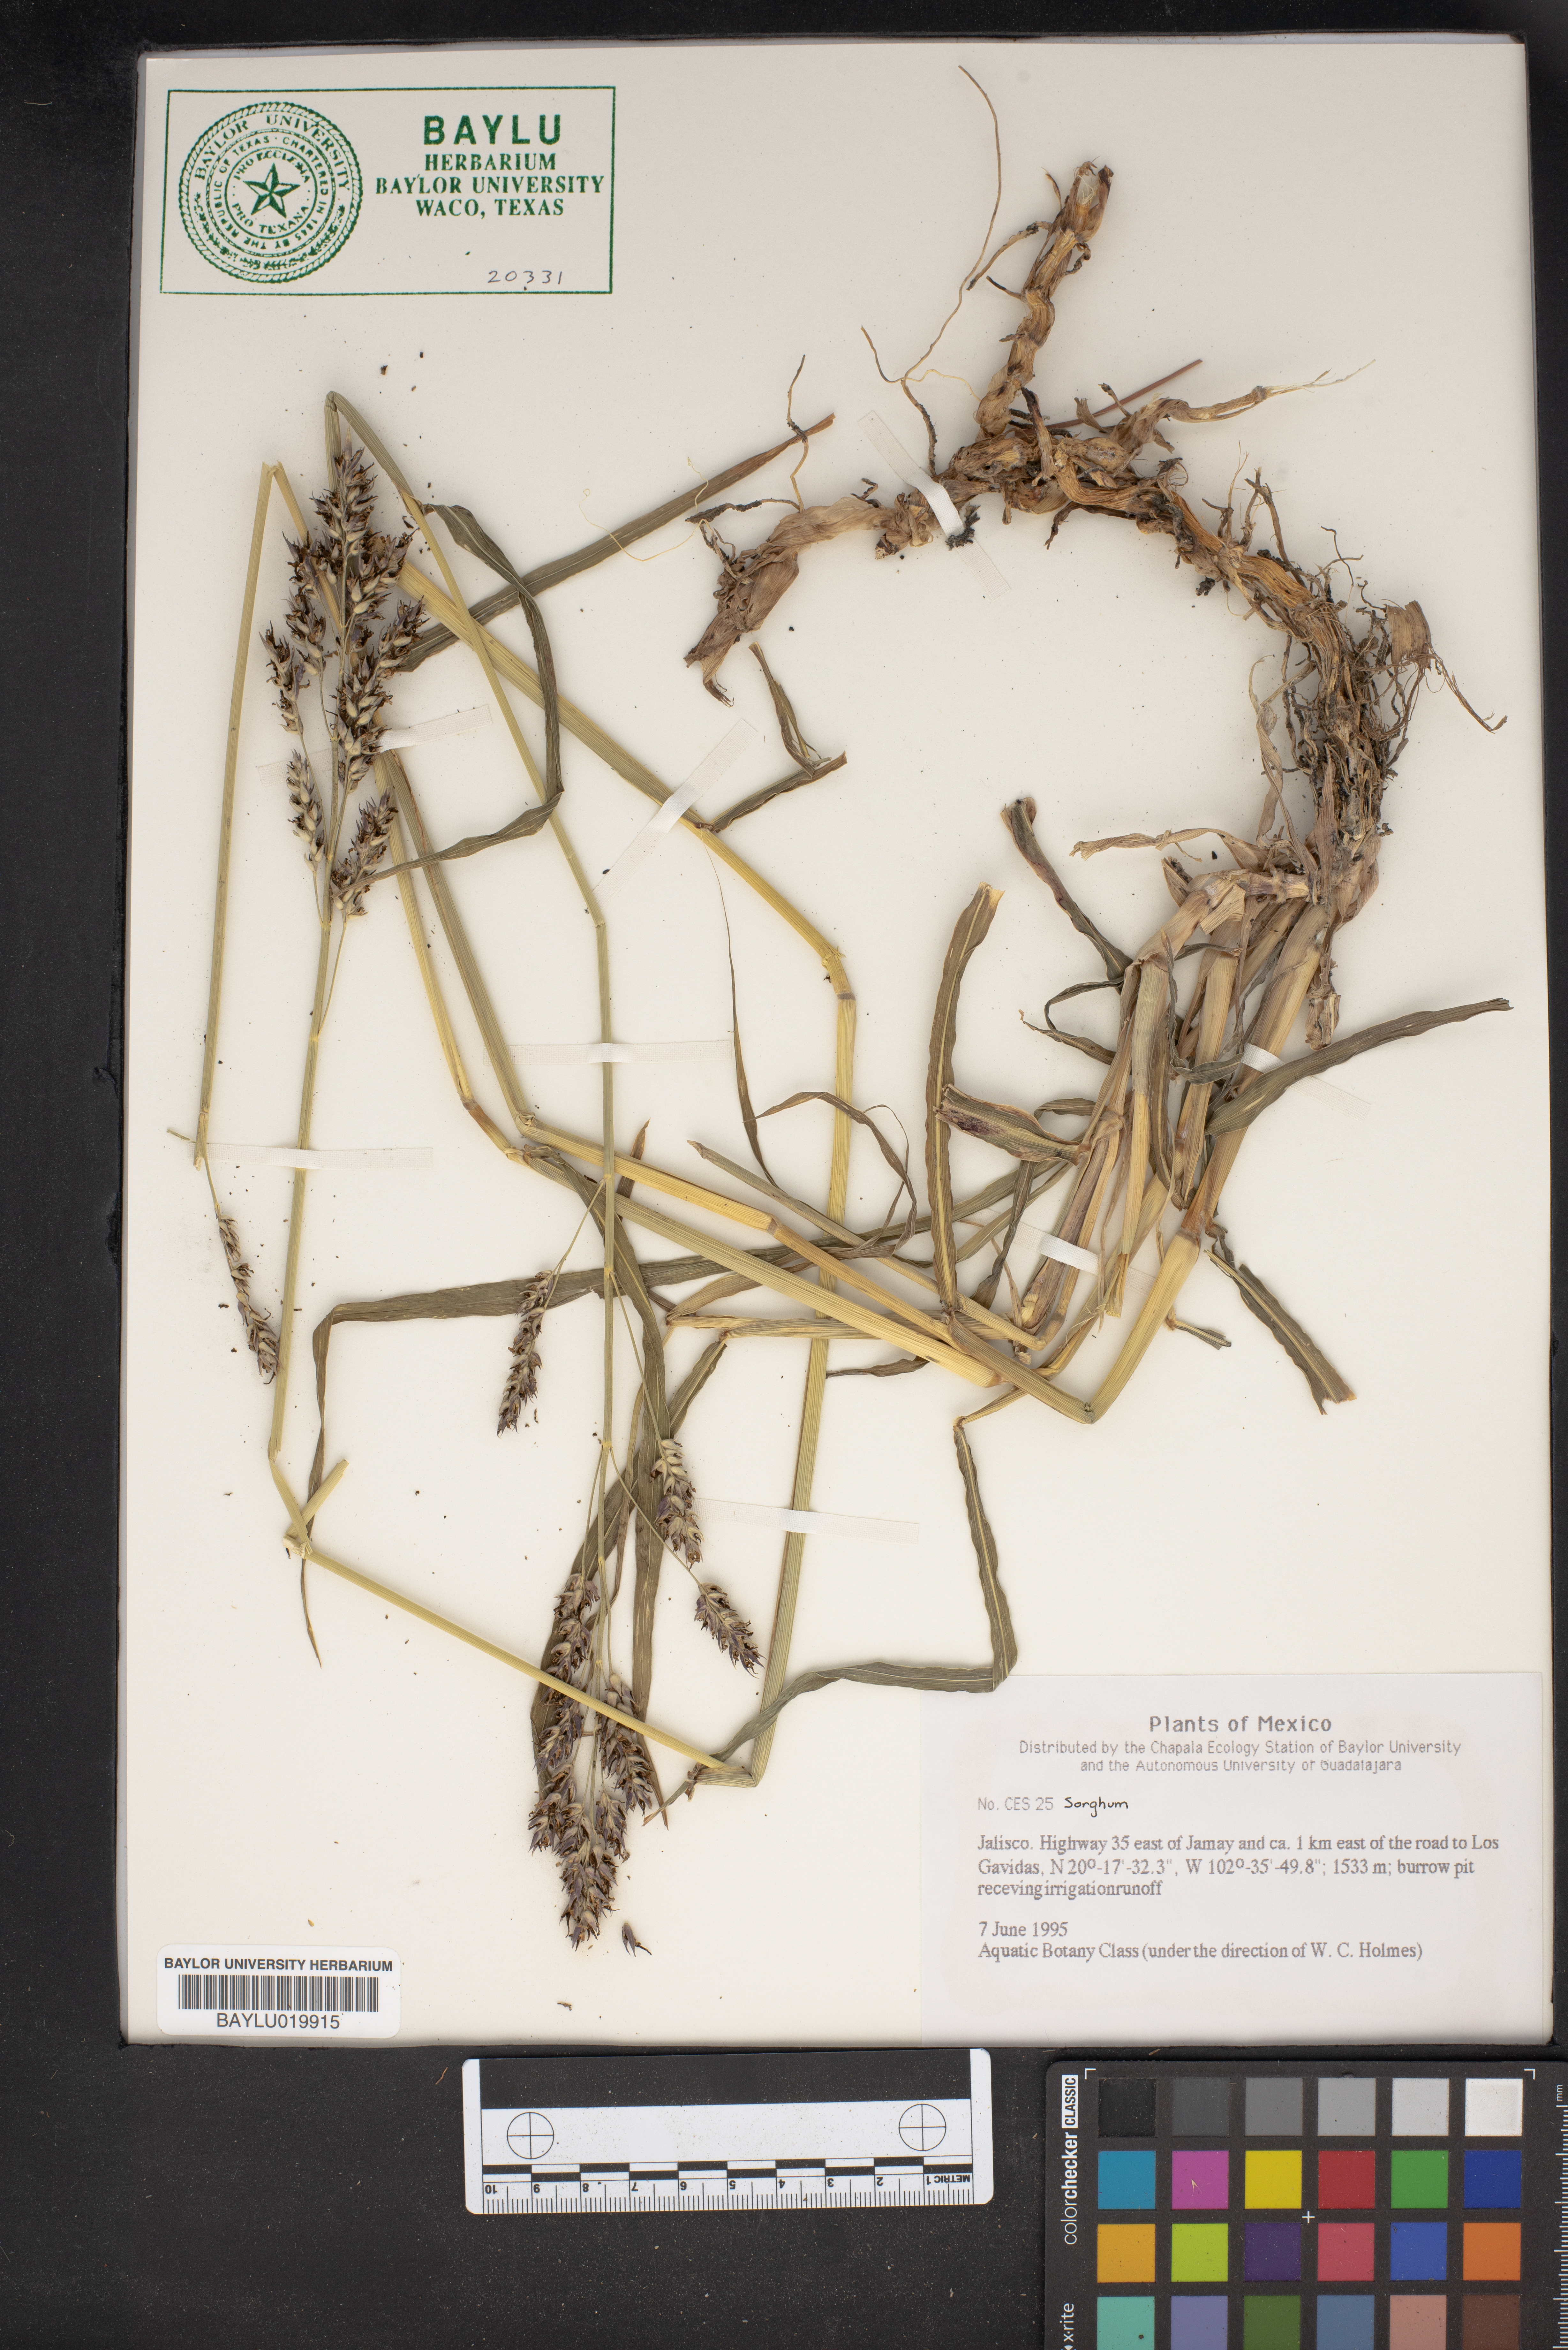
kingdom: Plantae
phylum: Tracheophyta
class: Liliopsida
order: Poales
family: Poaceae
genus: Sorghum
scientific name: Sorghum
